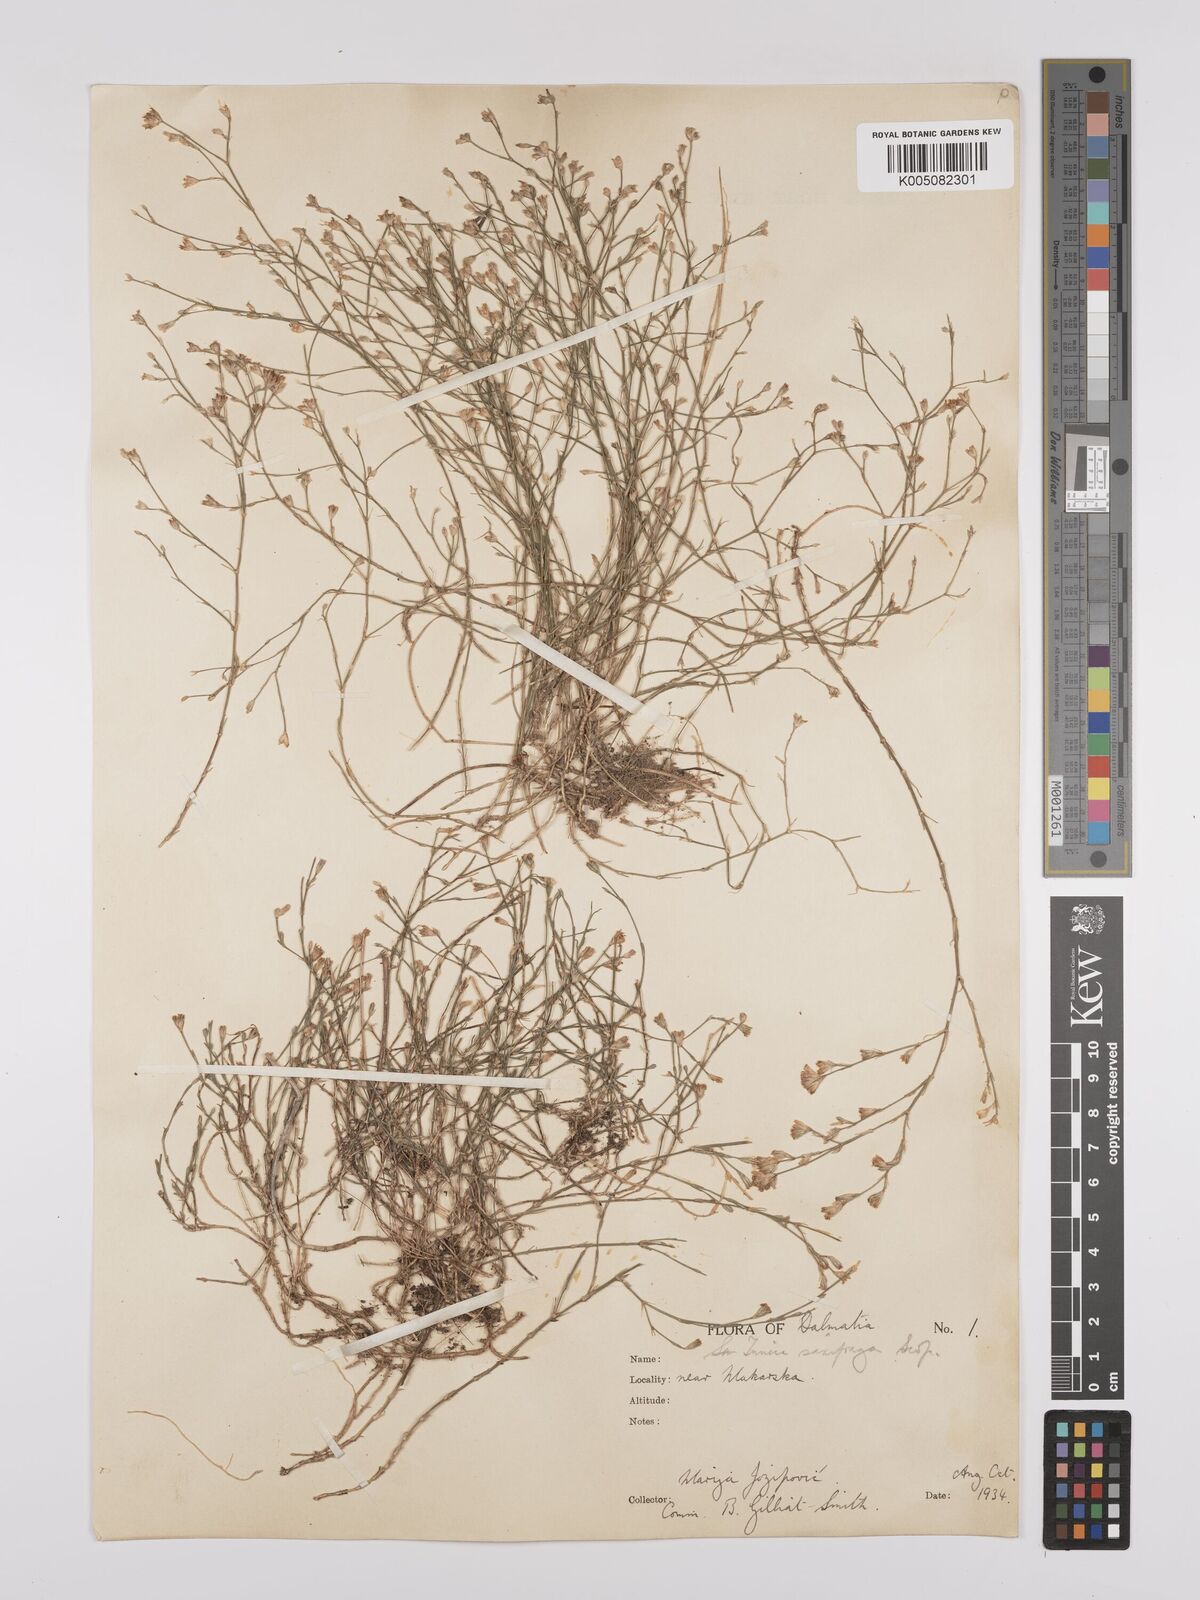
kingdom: Plantae
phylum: Tracheophyta
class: Magnoliopsida
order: Caryophyllales
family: Caryophyllaceae
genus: Petrorhagia
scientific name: Petrorhagia saxifraga
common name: Tunicflower
